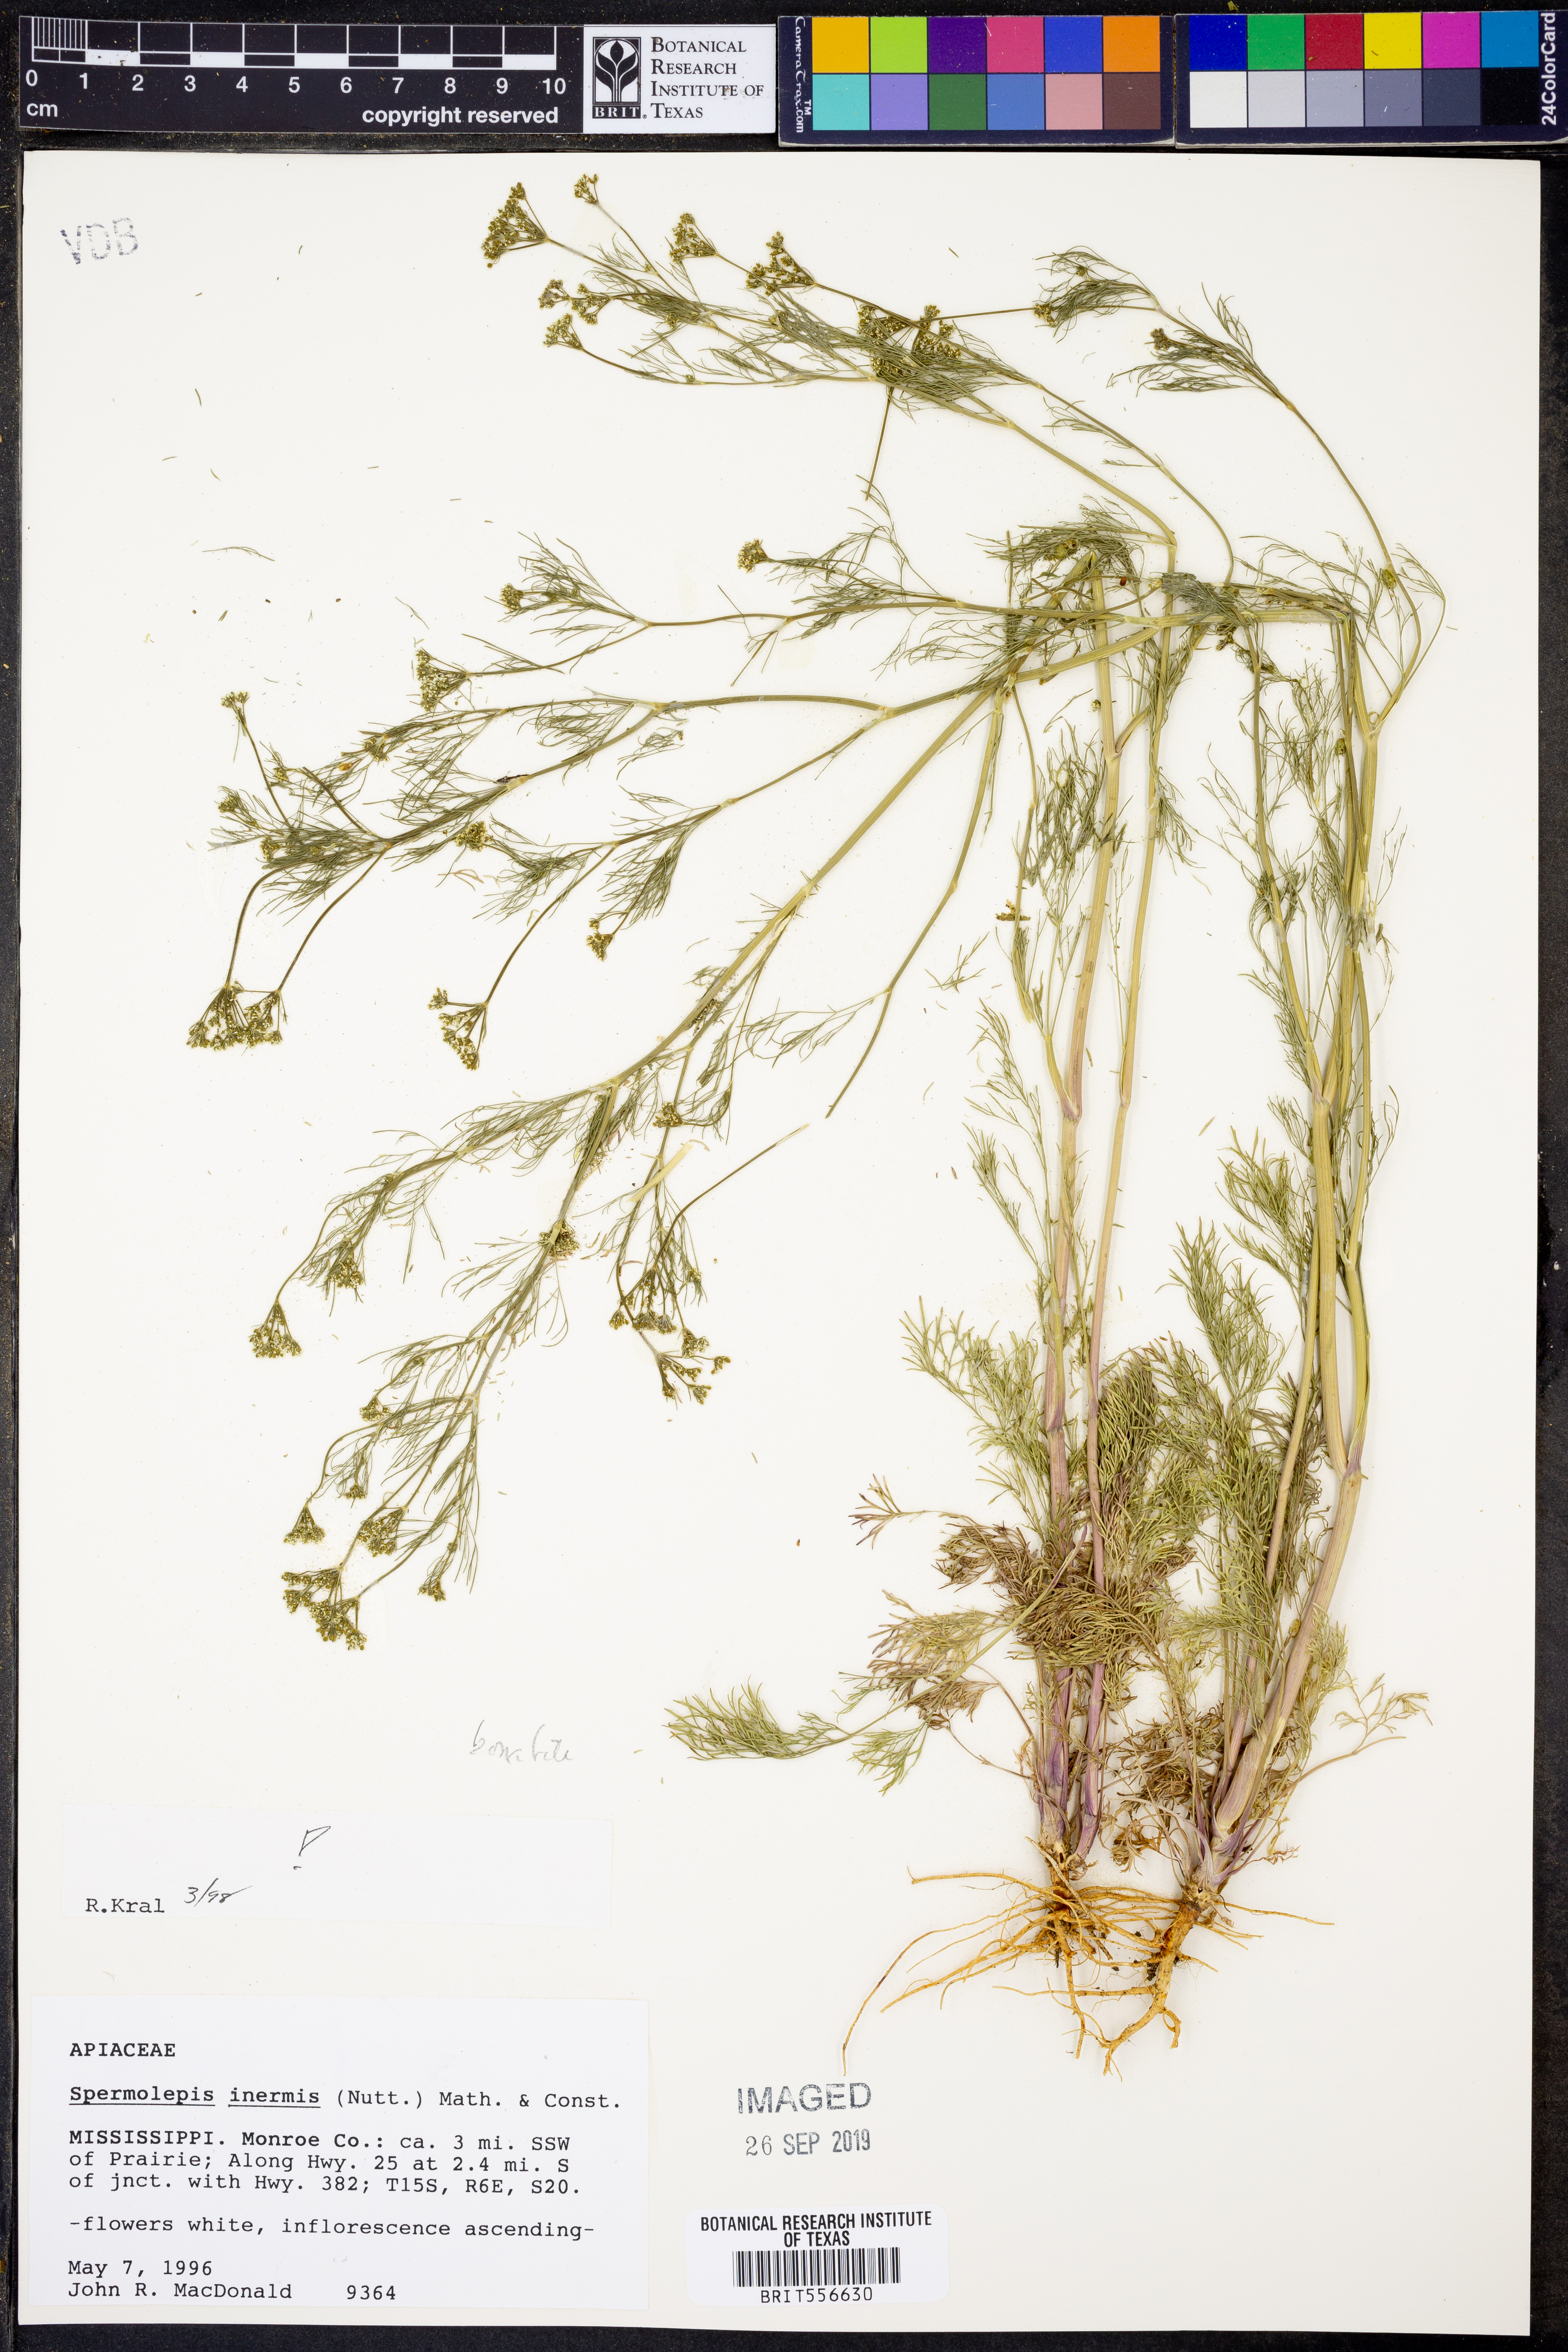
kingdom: Plantae
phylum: Tracheophyta
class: Magnoliopsida
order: Apiales
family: Apiaceae
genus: Spermolepis
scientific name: Spermolepis inermis
